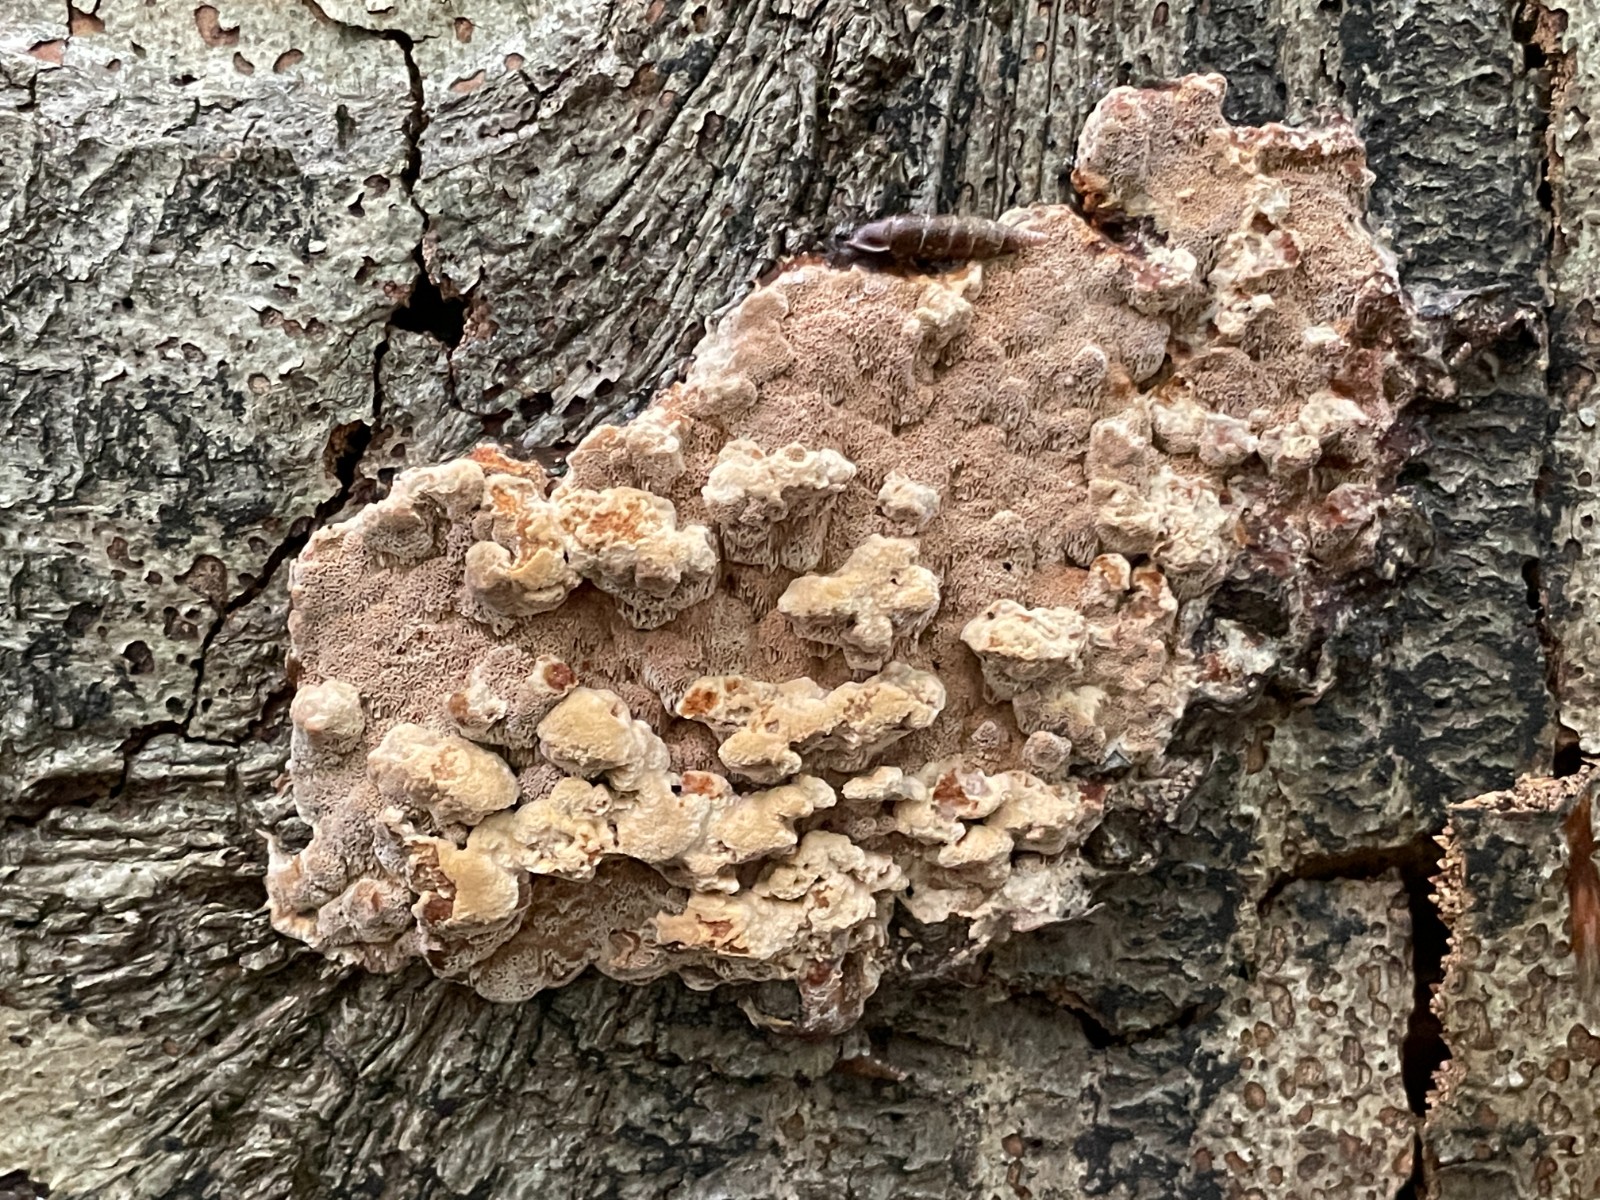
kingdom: Fungi
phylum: Basidiomycota
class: Agaricomycetes
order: Hymenochaetales
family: Hymenochaetaceae
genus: Mensularia
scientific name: Mensularia nodulosa
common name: bøge-spejlporesvamp
